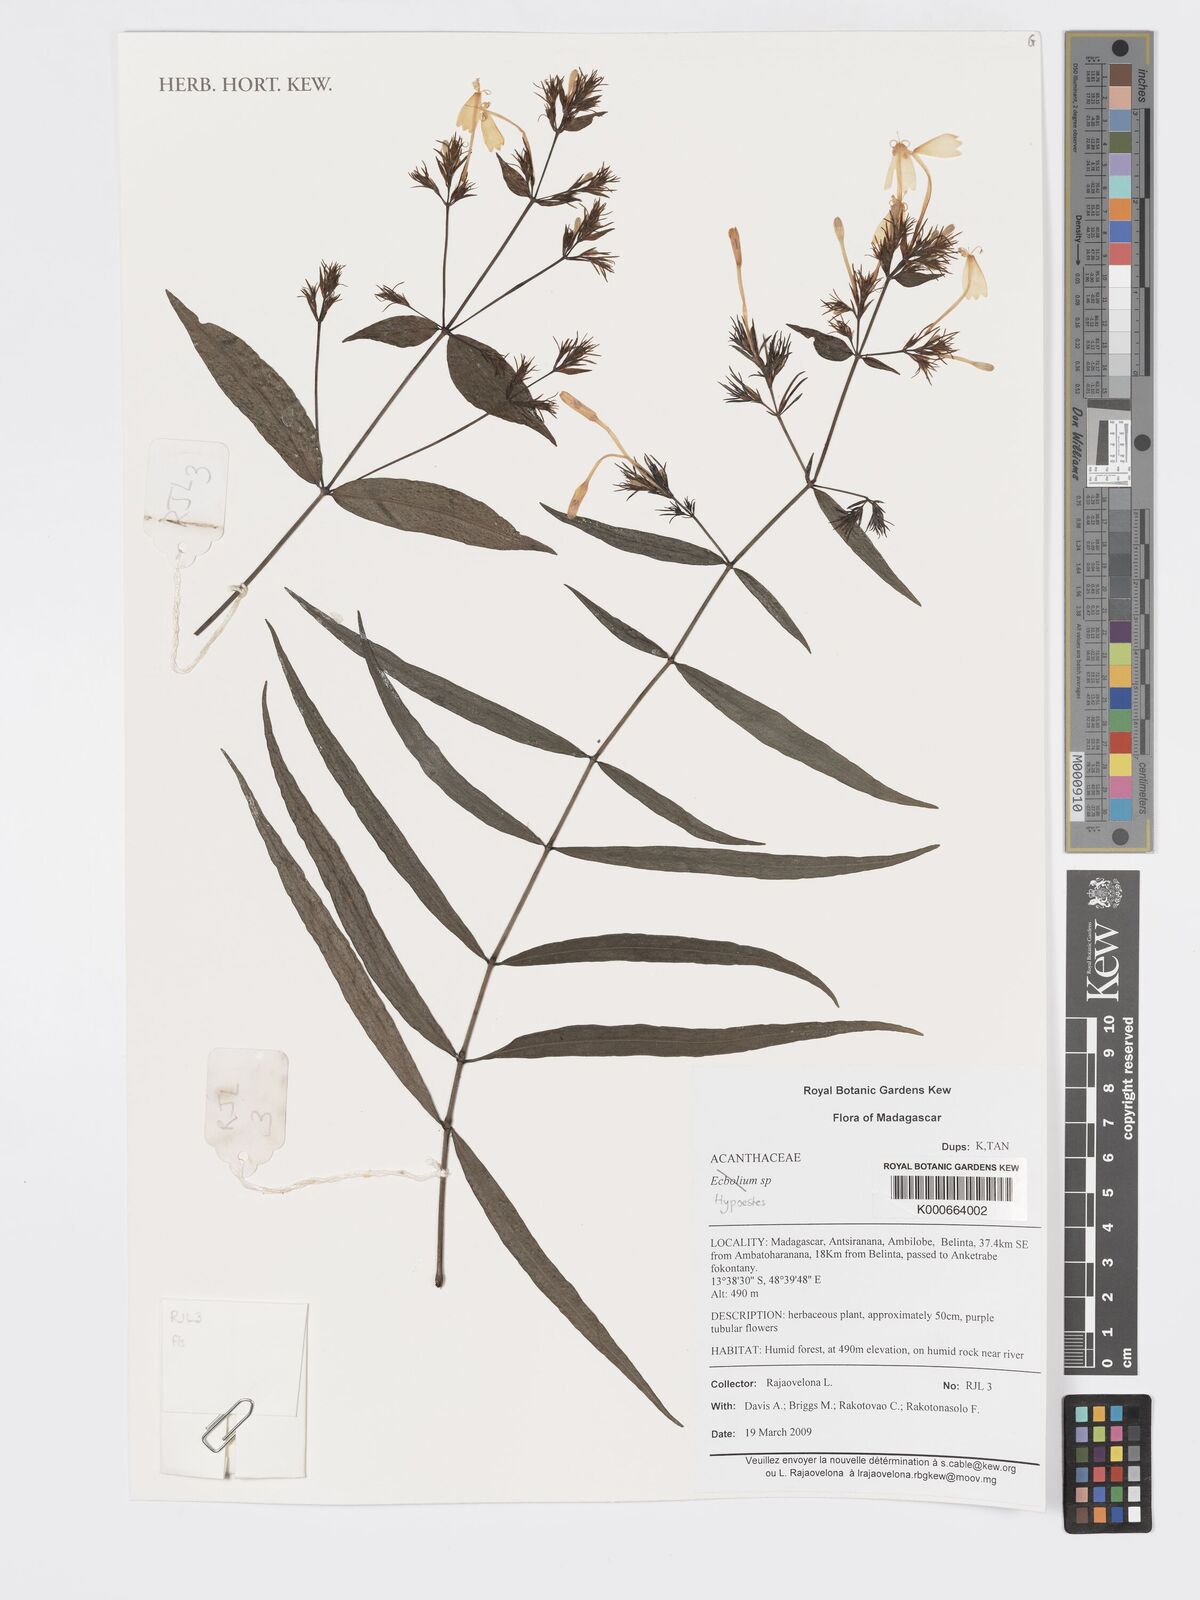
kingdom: Plantae
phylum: Tracheophyta
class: Magnoliopsida
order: Lamiales
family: Acanthaceae
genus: Hypoestes
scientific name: Hypoestes
